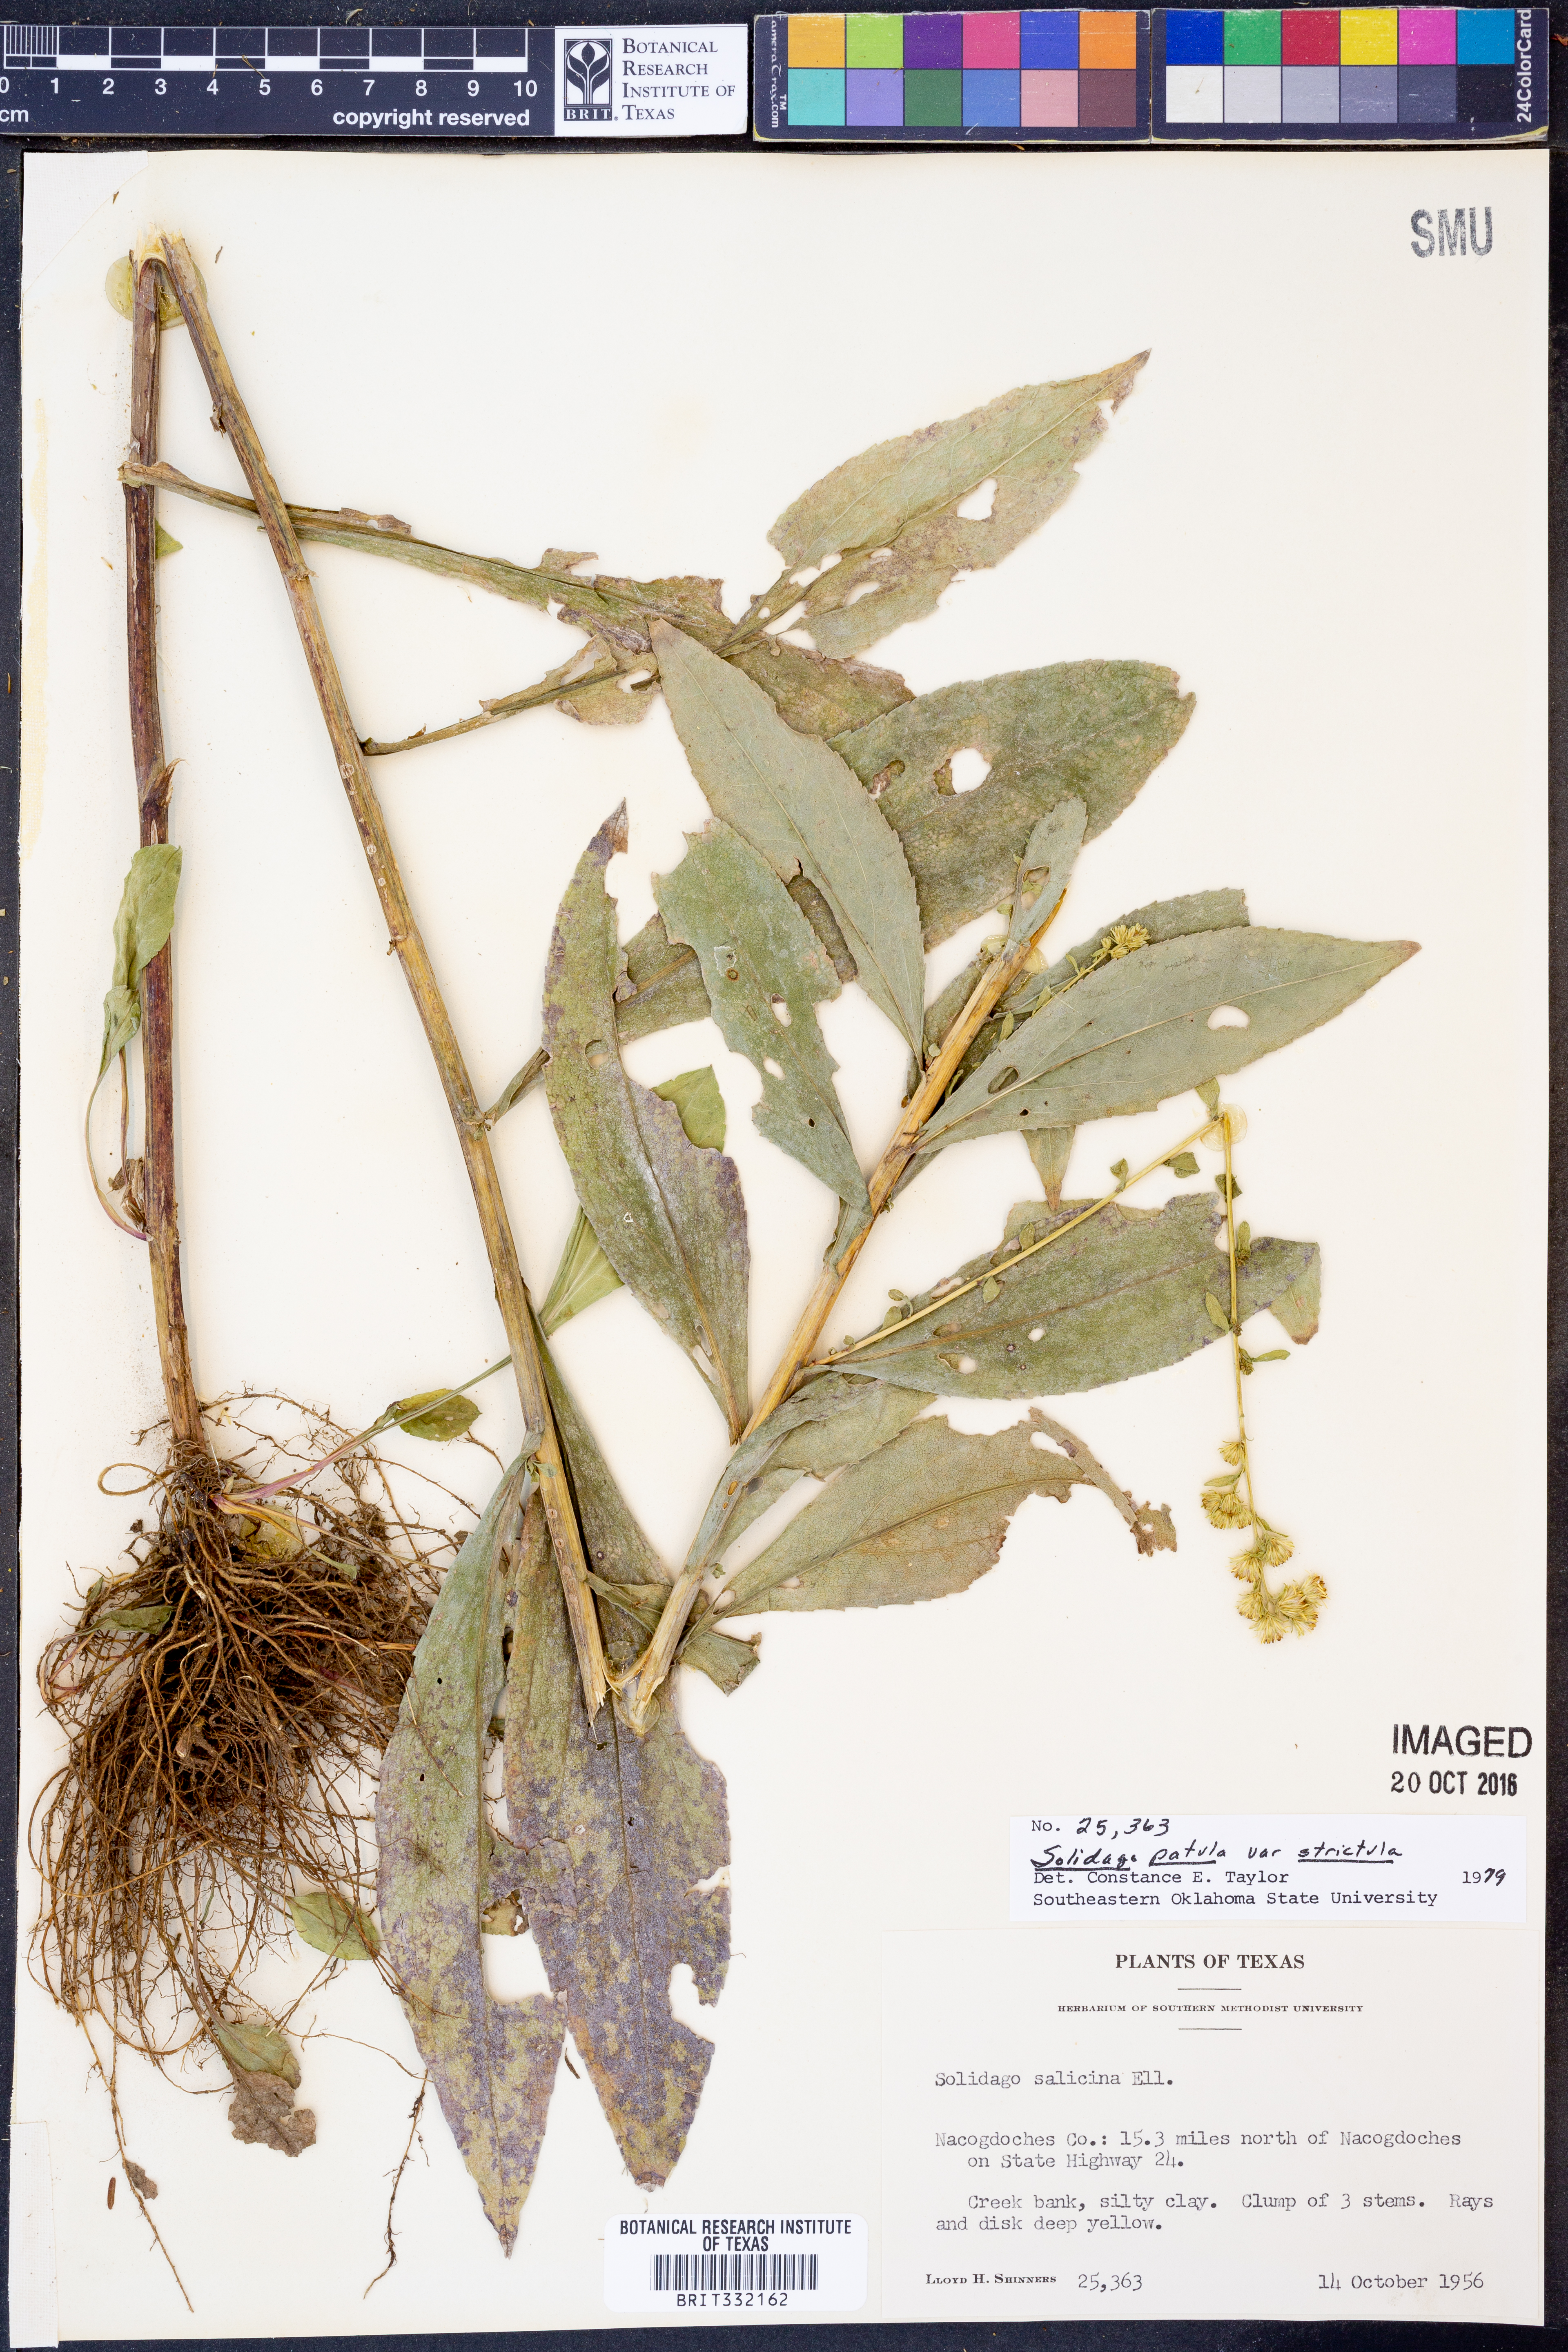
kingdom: Plantae
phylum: Tracheophyta
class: Magnoliopsida
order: Asterales
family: Asteraceae
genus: Solidago
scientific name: Solidago salicina
